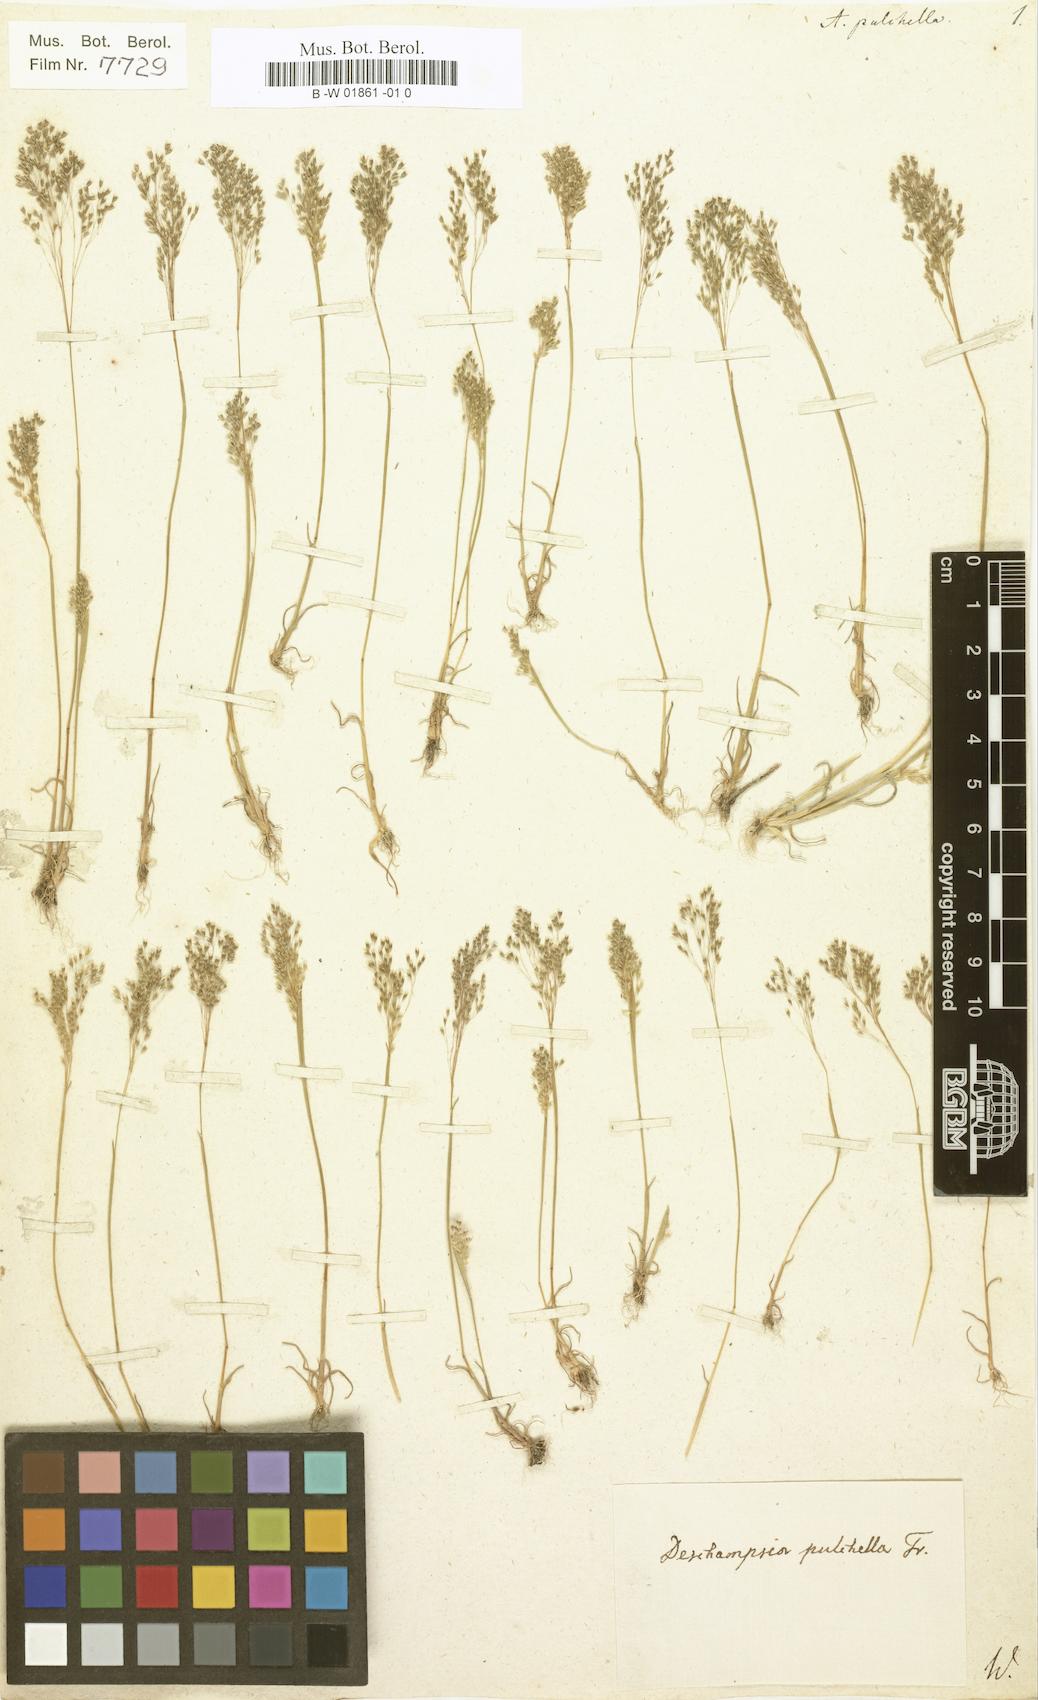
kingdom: Plantae
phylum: Tracheophyta
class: Liliopsida
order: Poales
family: Poaceae
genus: Molineriella
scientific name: Molineriella laevis
